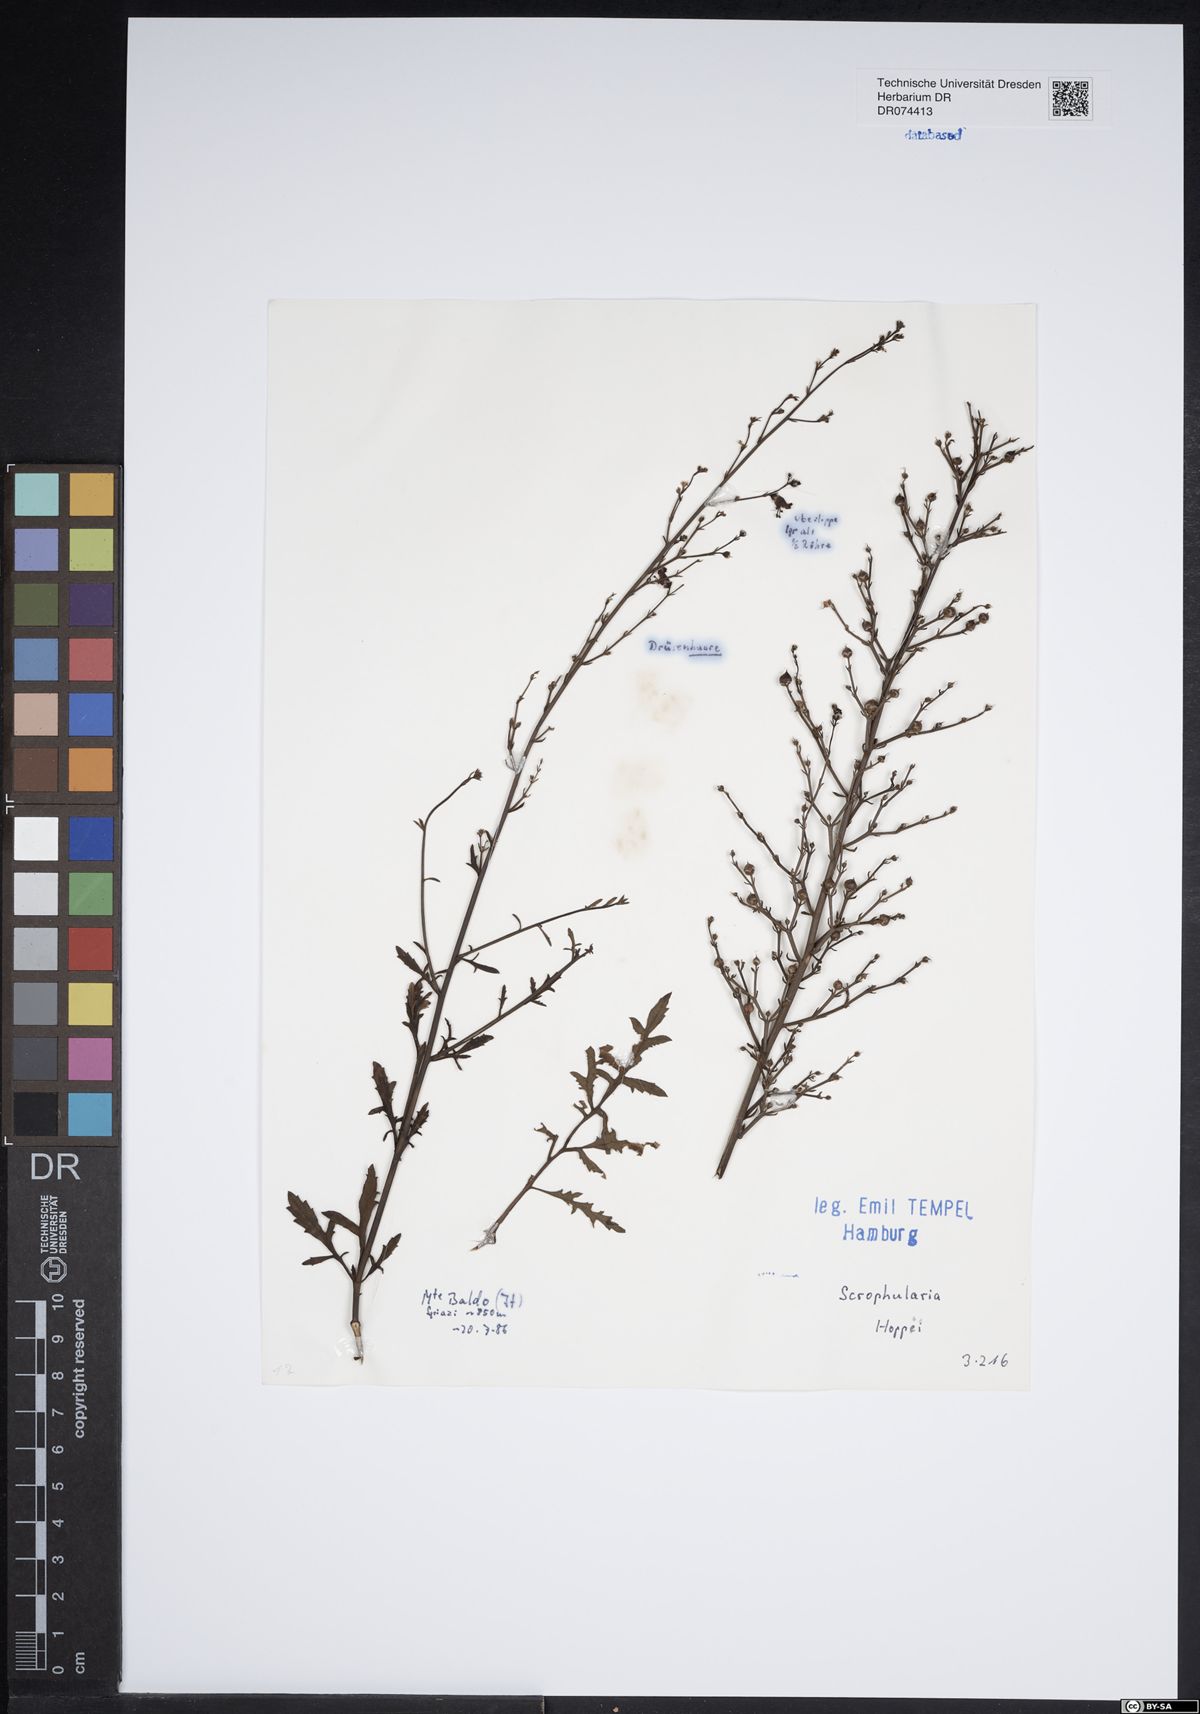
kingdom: Plantae
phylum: Tracheophyta
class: Magnoliopsida
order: Lamiales
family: Scrophulariaceae
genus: Scrophularia
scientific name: Scrophularia canina
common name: French figwort
